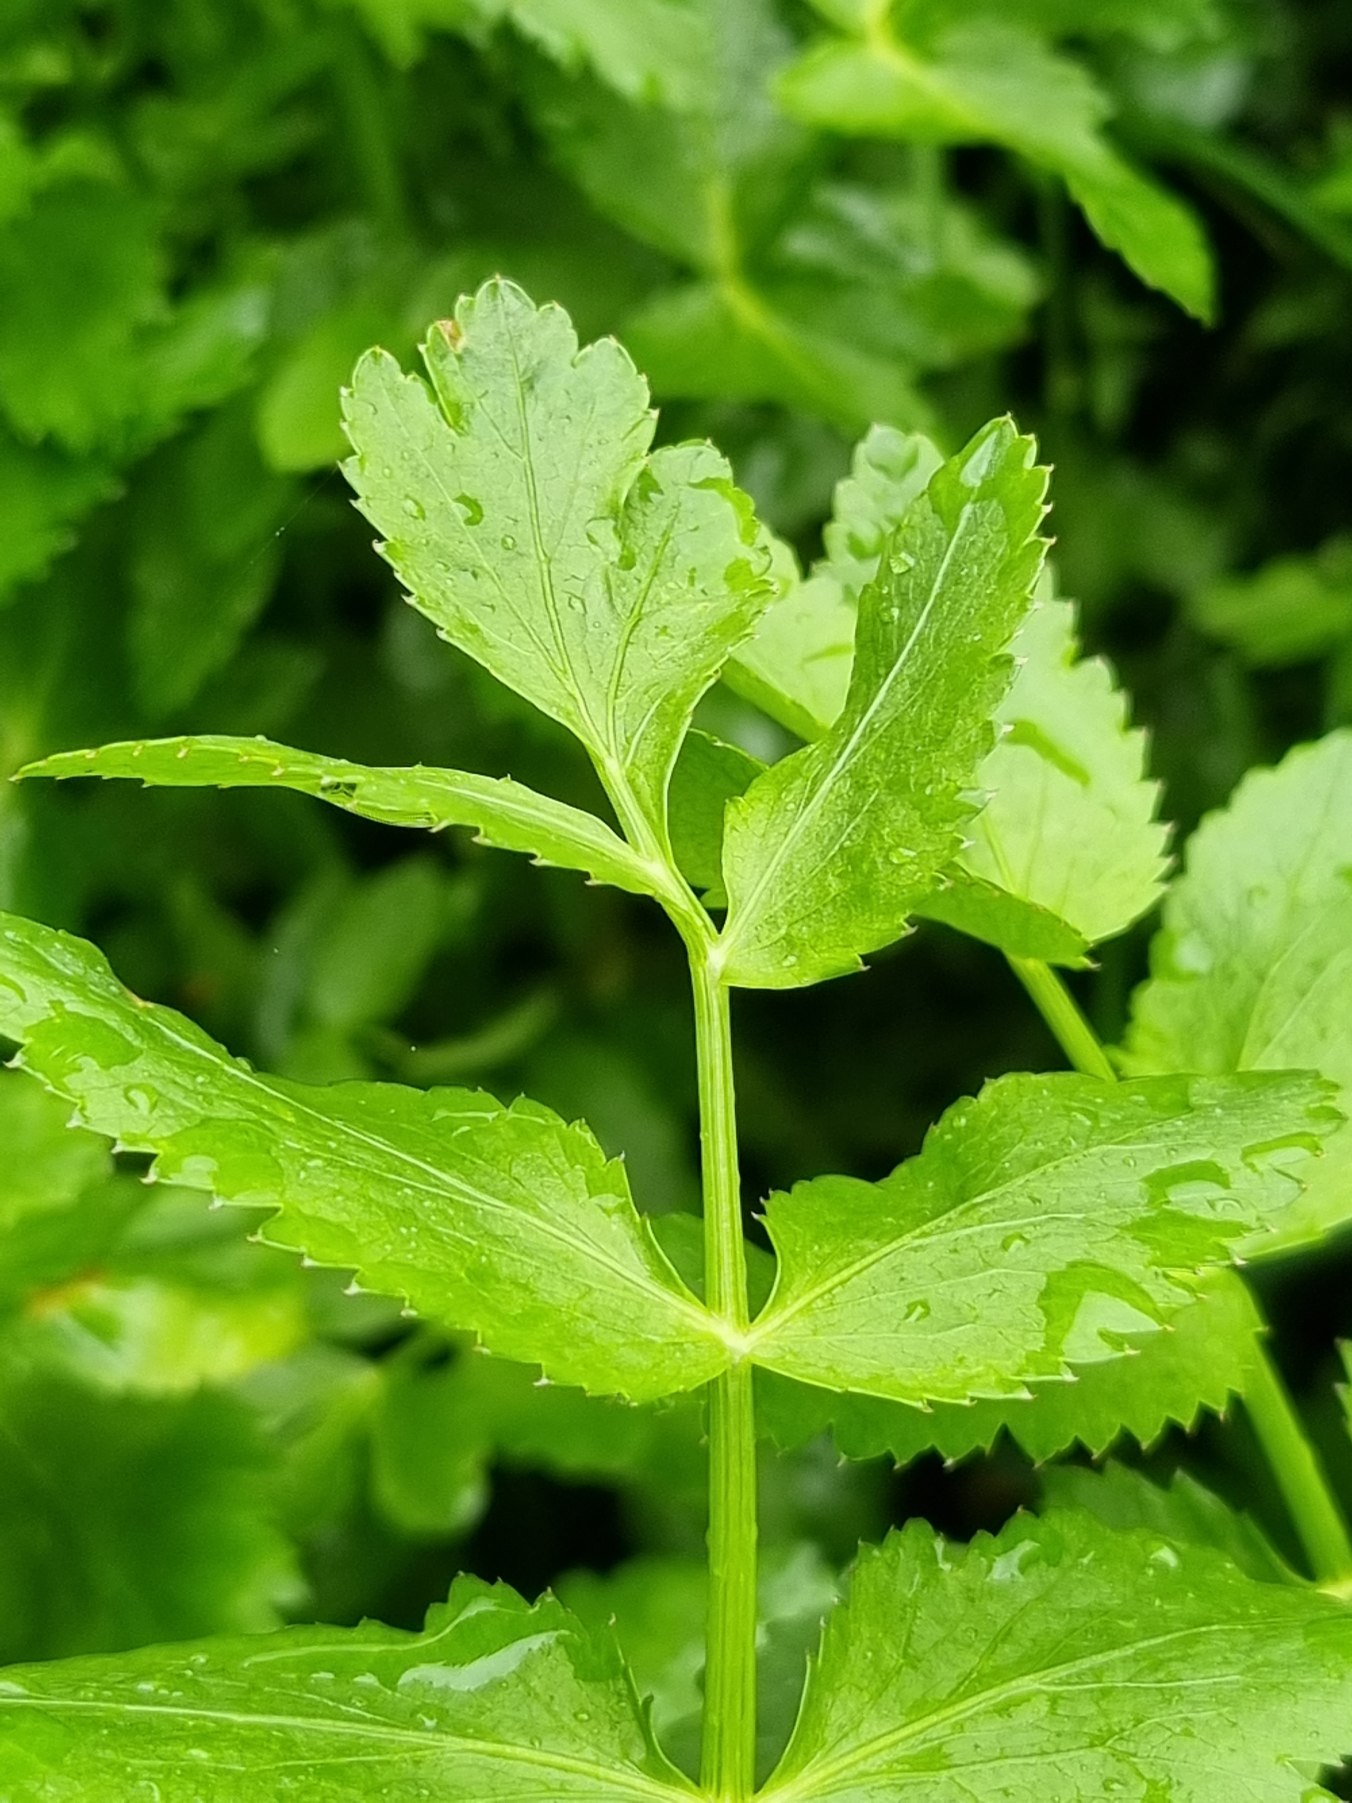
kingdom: Plantae
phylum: Tracheophyta
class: Magnoliopsida
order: Apiales
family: Apiaceae
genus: Berula
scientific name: Berula erecta
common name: Sideskærm
